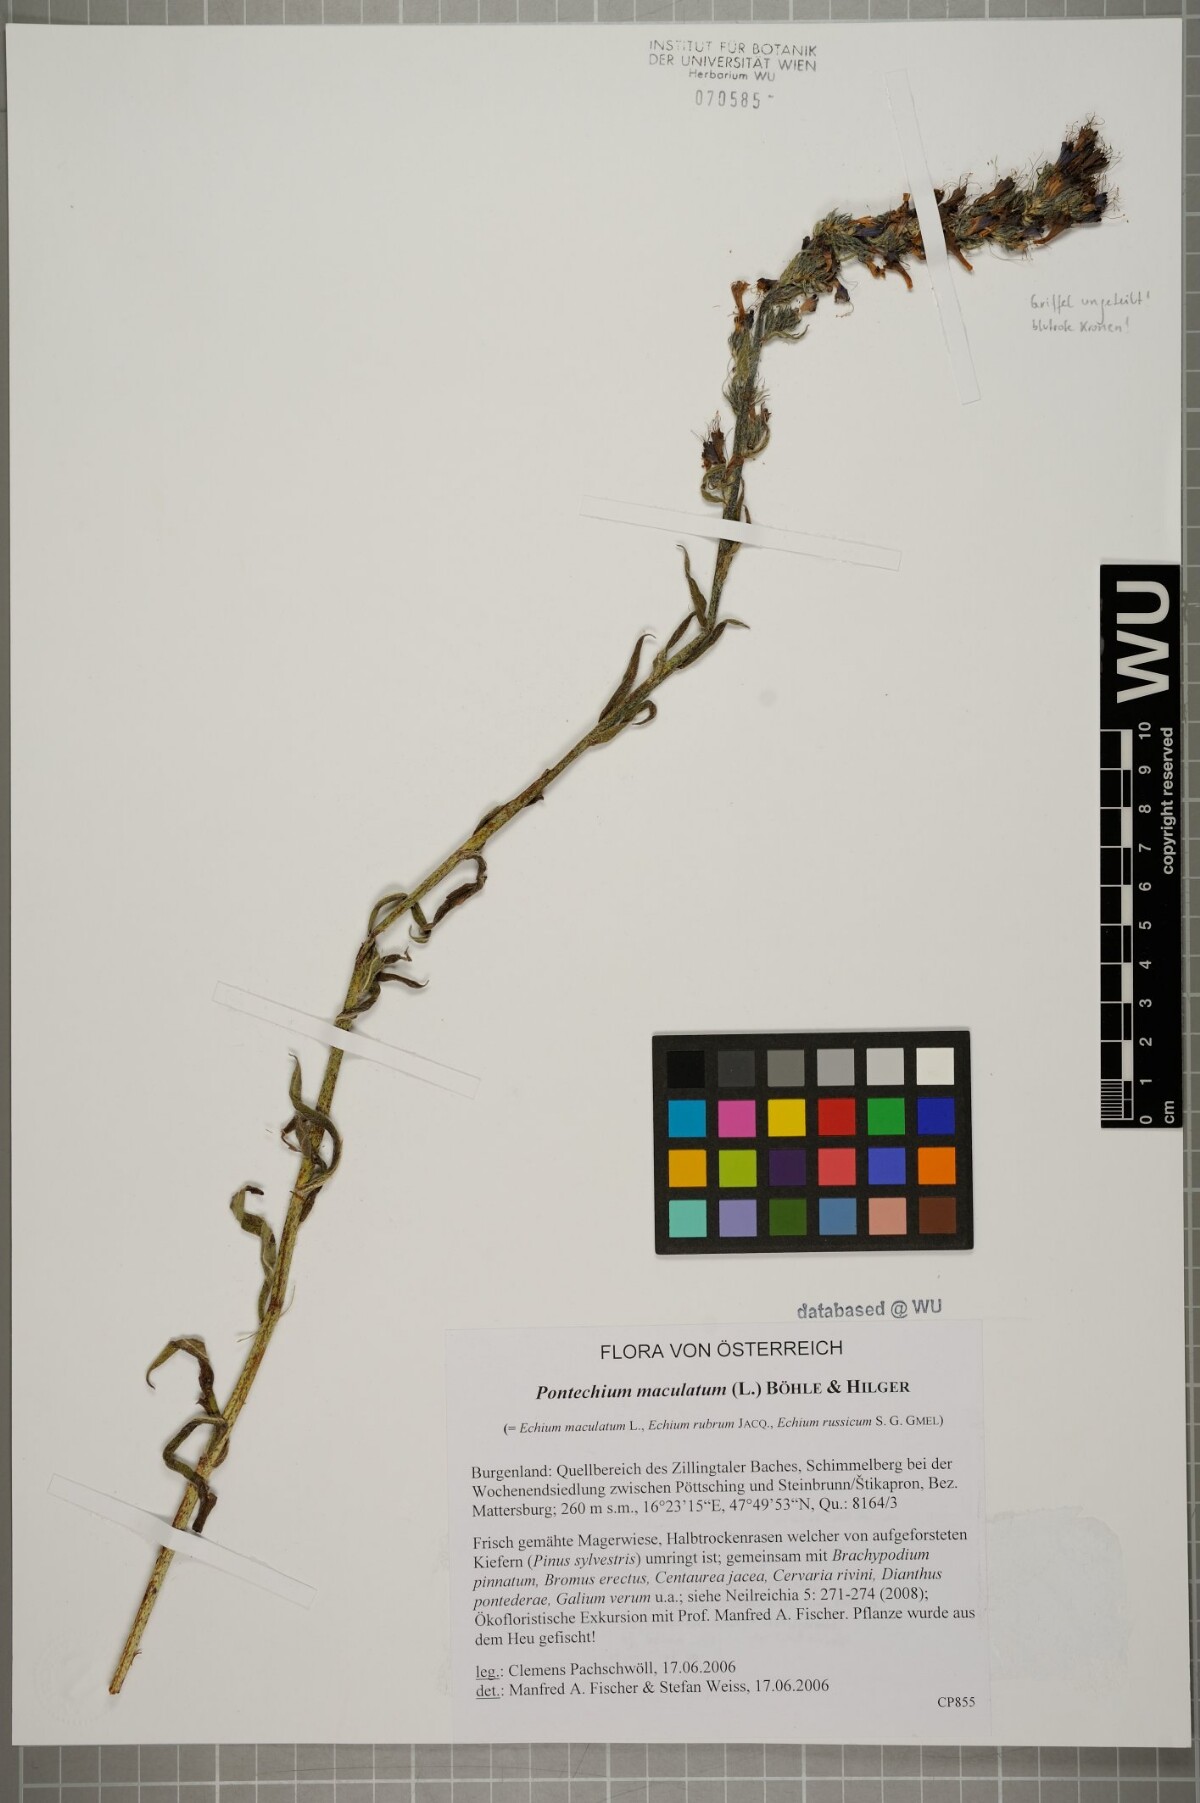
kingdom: Plantae
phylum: Tracheophyta
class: Magnoliopsida
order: Boraginales
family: Boraginaceae
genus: Pontechium
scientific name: Pontechium maculatum
